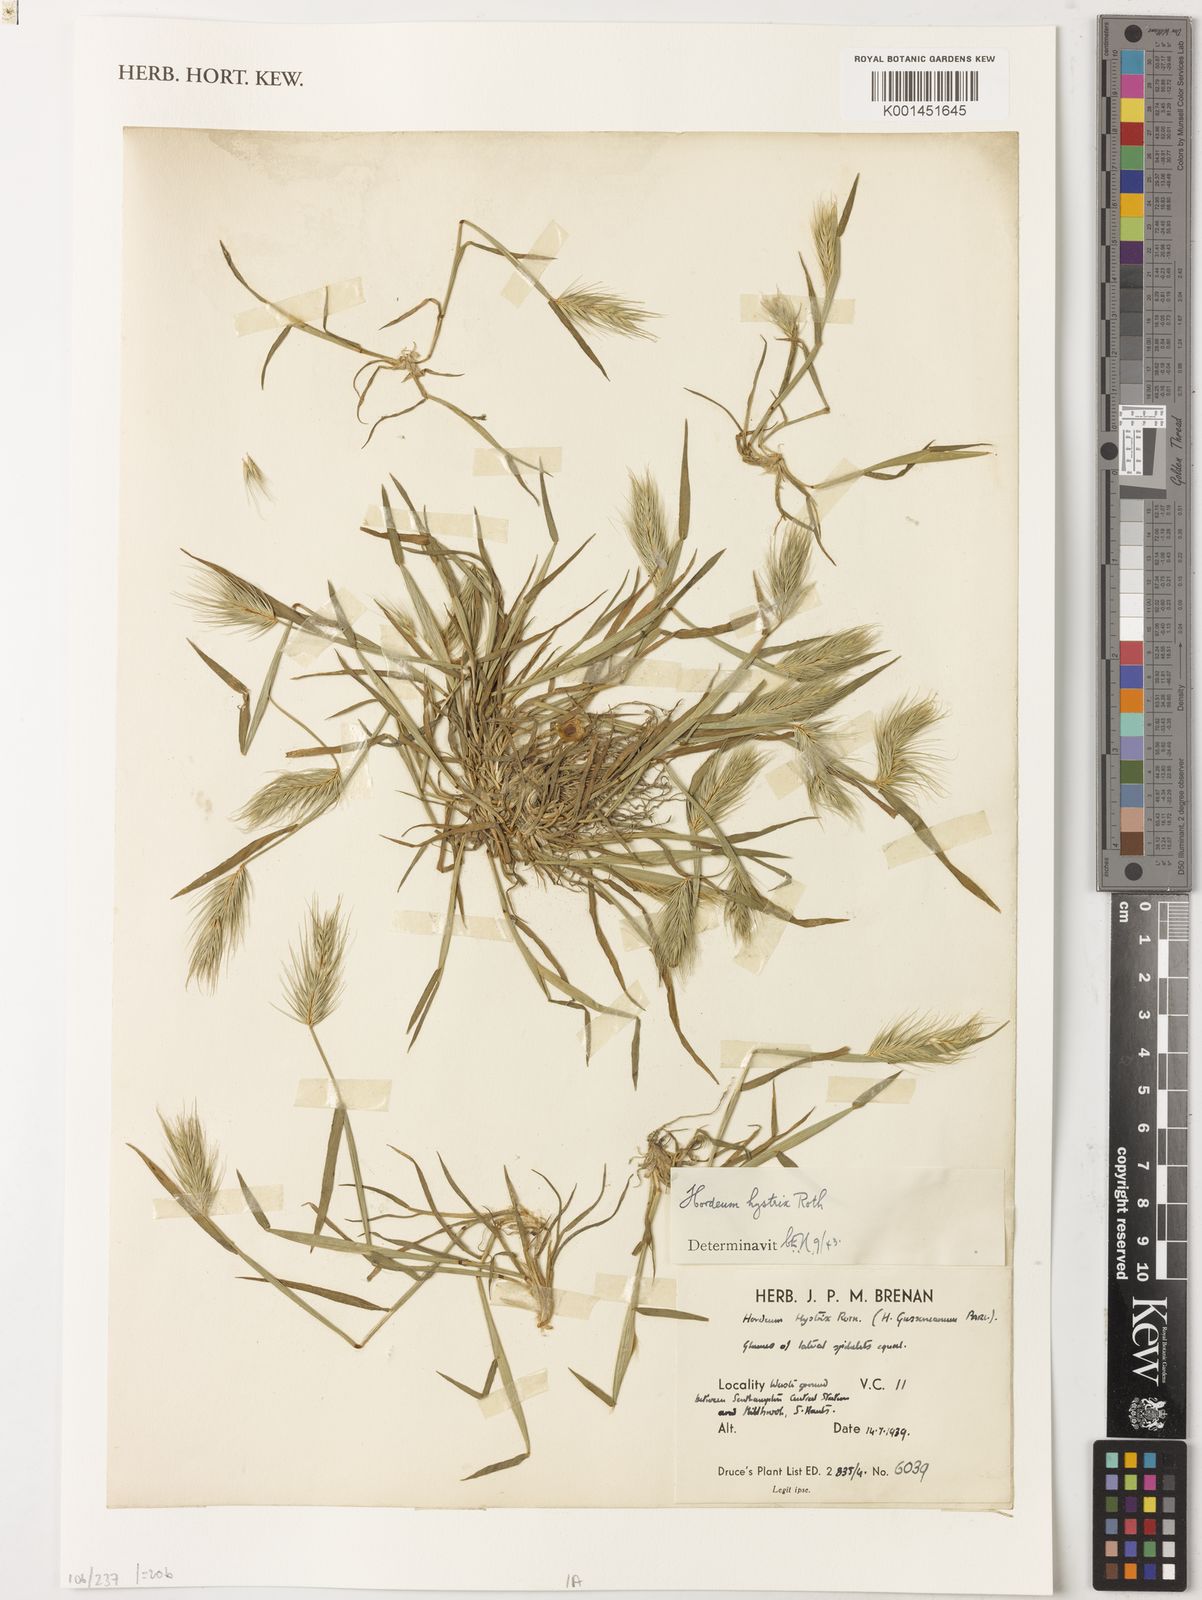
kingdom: Plantae
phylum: Tracheophyta
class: Liliopsida
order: Poales
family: Poaceae
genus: Hordeum
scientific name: Hordeum marinum
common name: Sea barley
